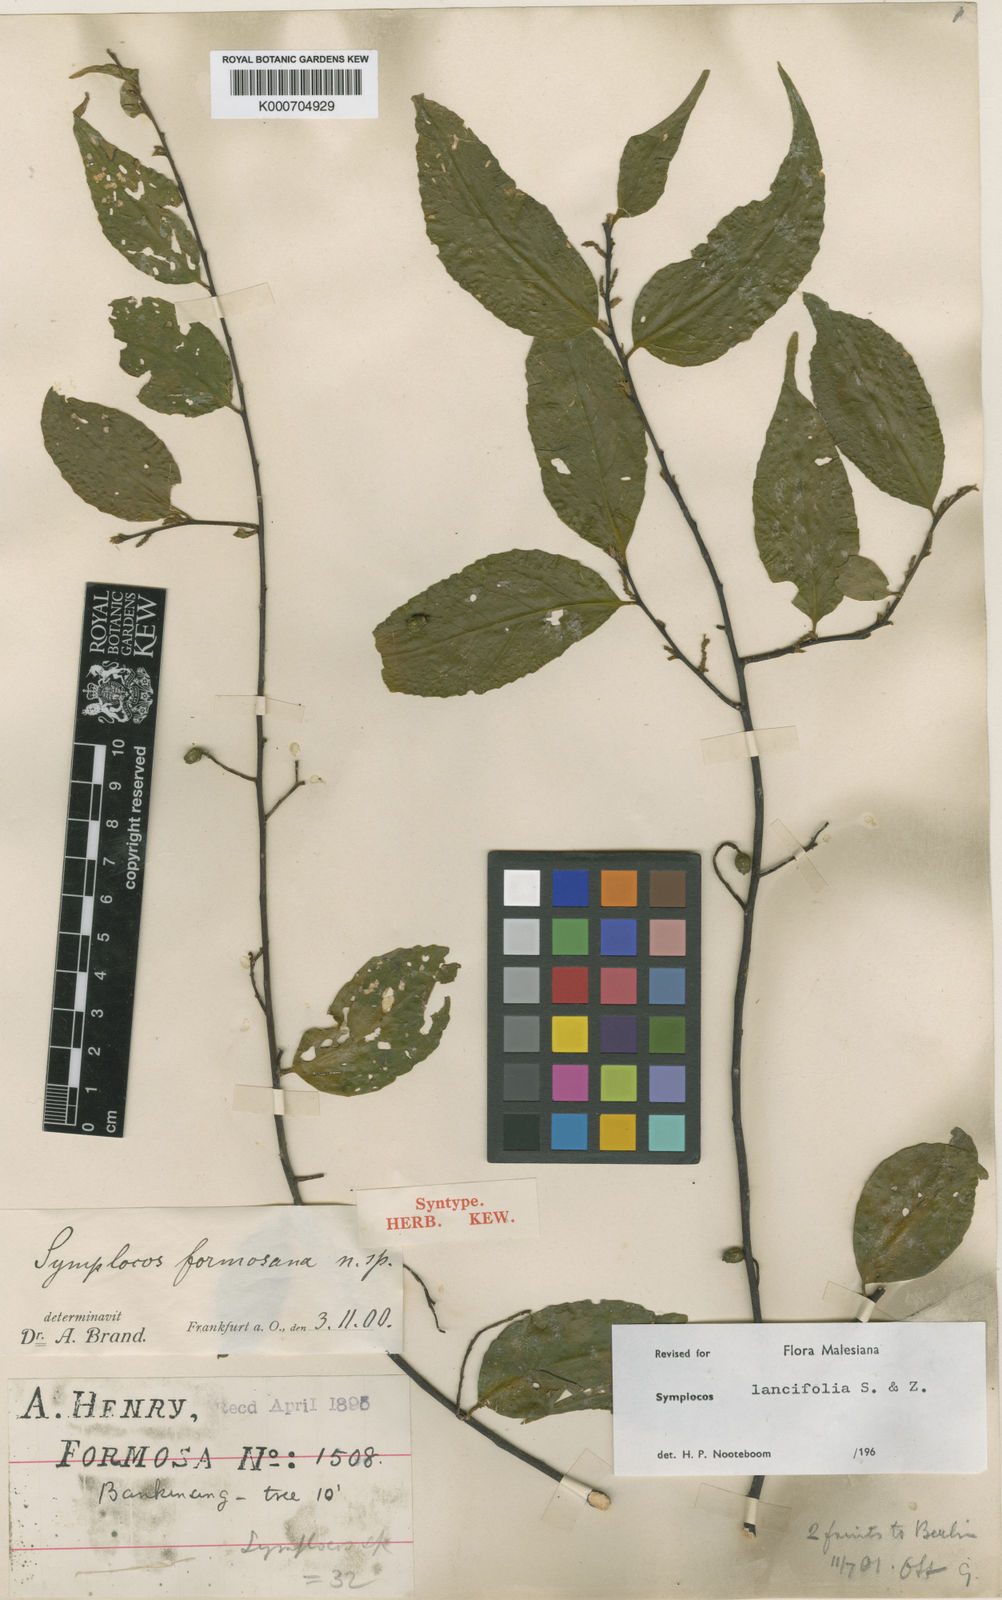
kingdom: Plantae
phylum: Tracheophyta
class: Magnoliopsida
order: Ericales
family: Symplocaceae
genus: Symplocos
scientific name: Symplocos lancifolia
